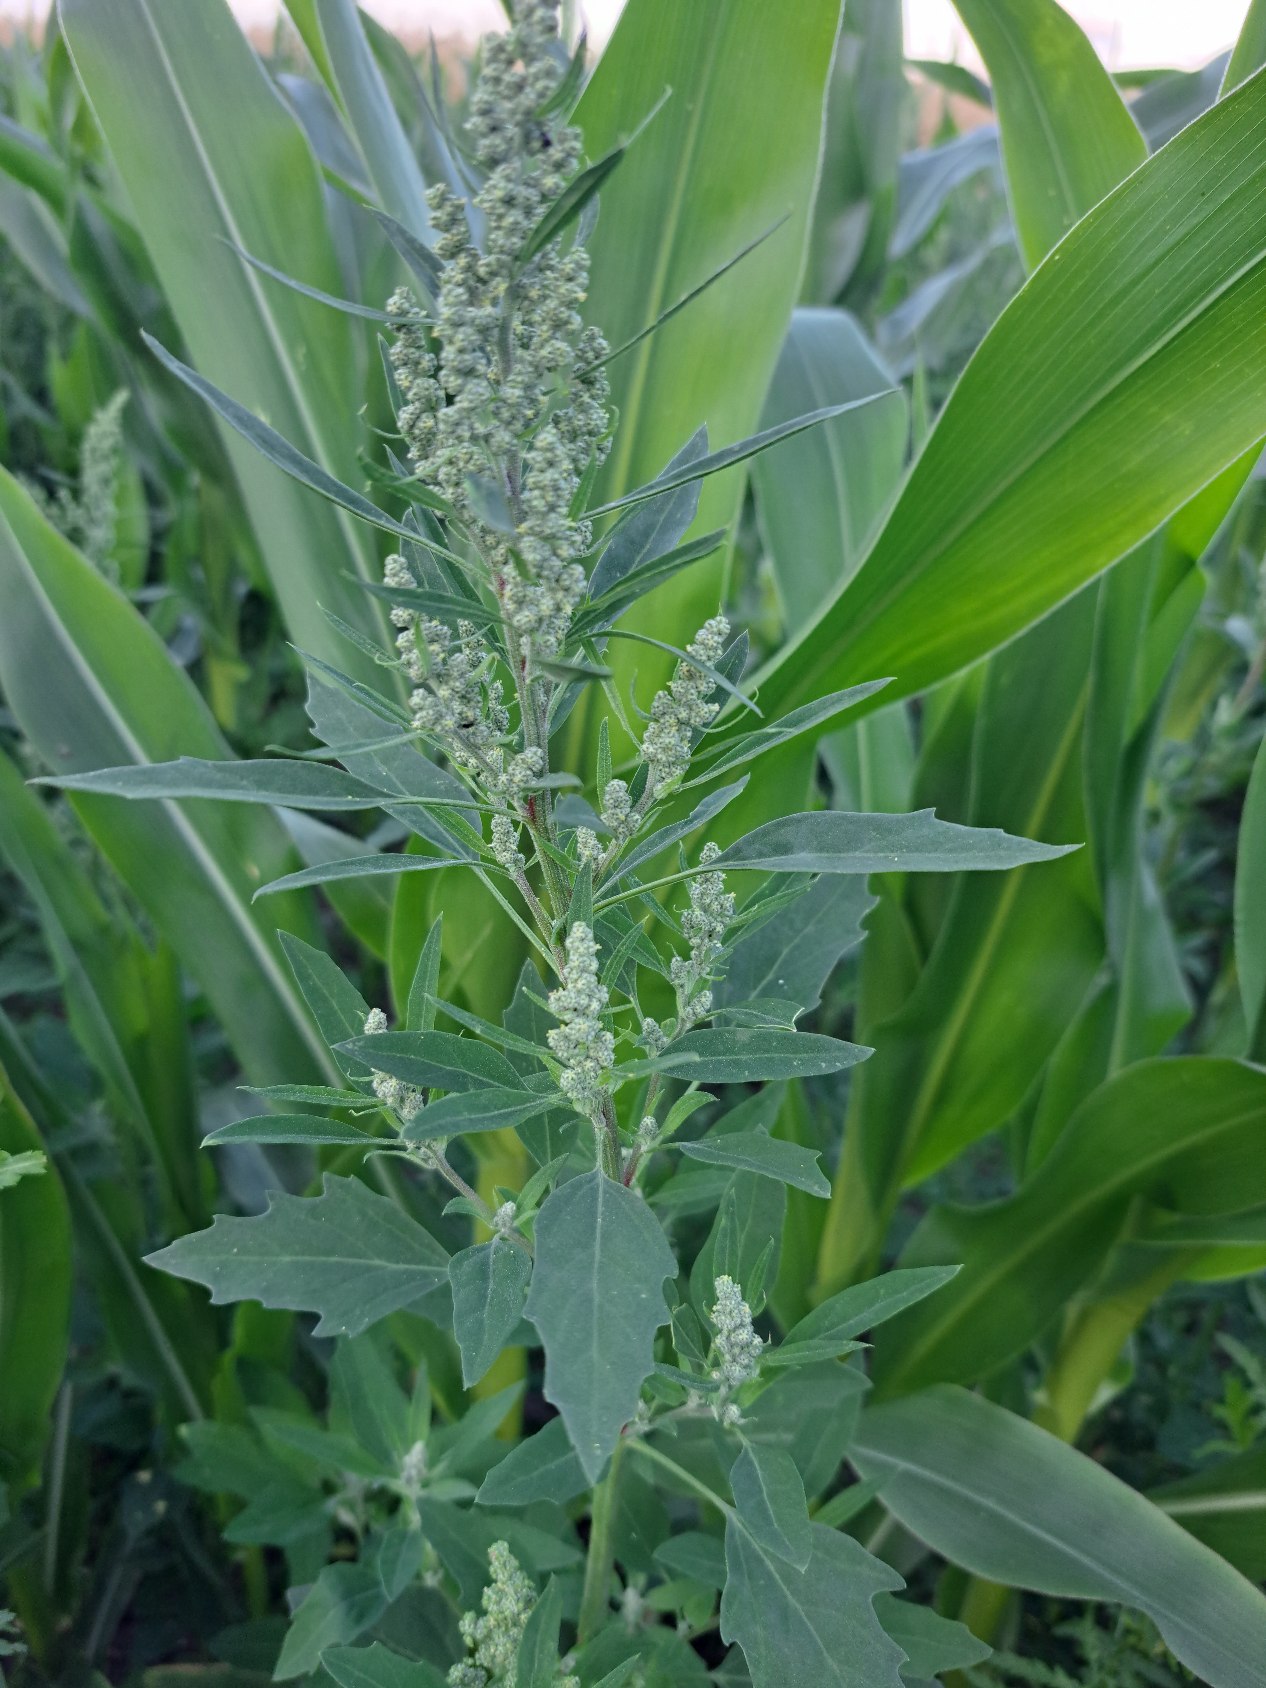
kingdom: Plantae
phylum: Tracheophyta
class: Magnoliopsida
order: Caryophyllales
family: Amaranthaceae
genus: Chenopodium
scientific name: Chenopodium album
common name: Hvidmelet gåsefod
